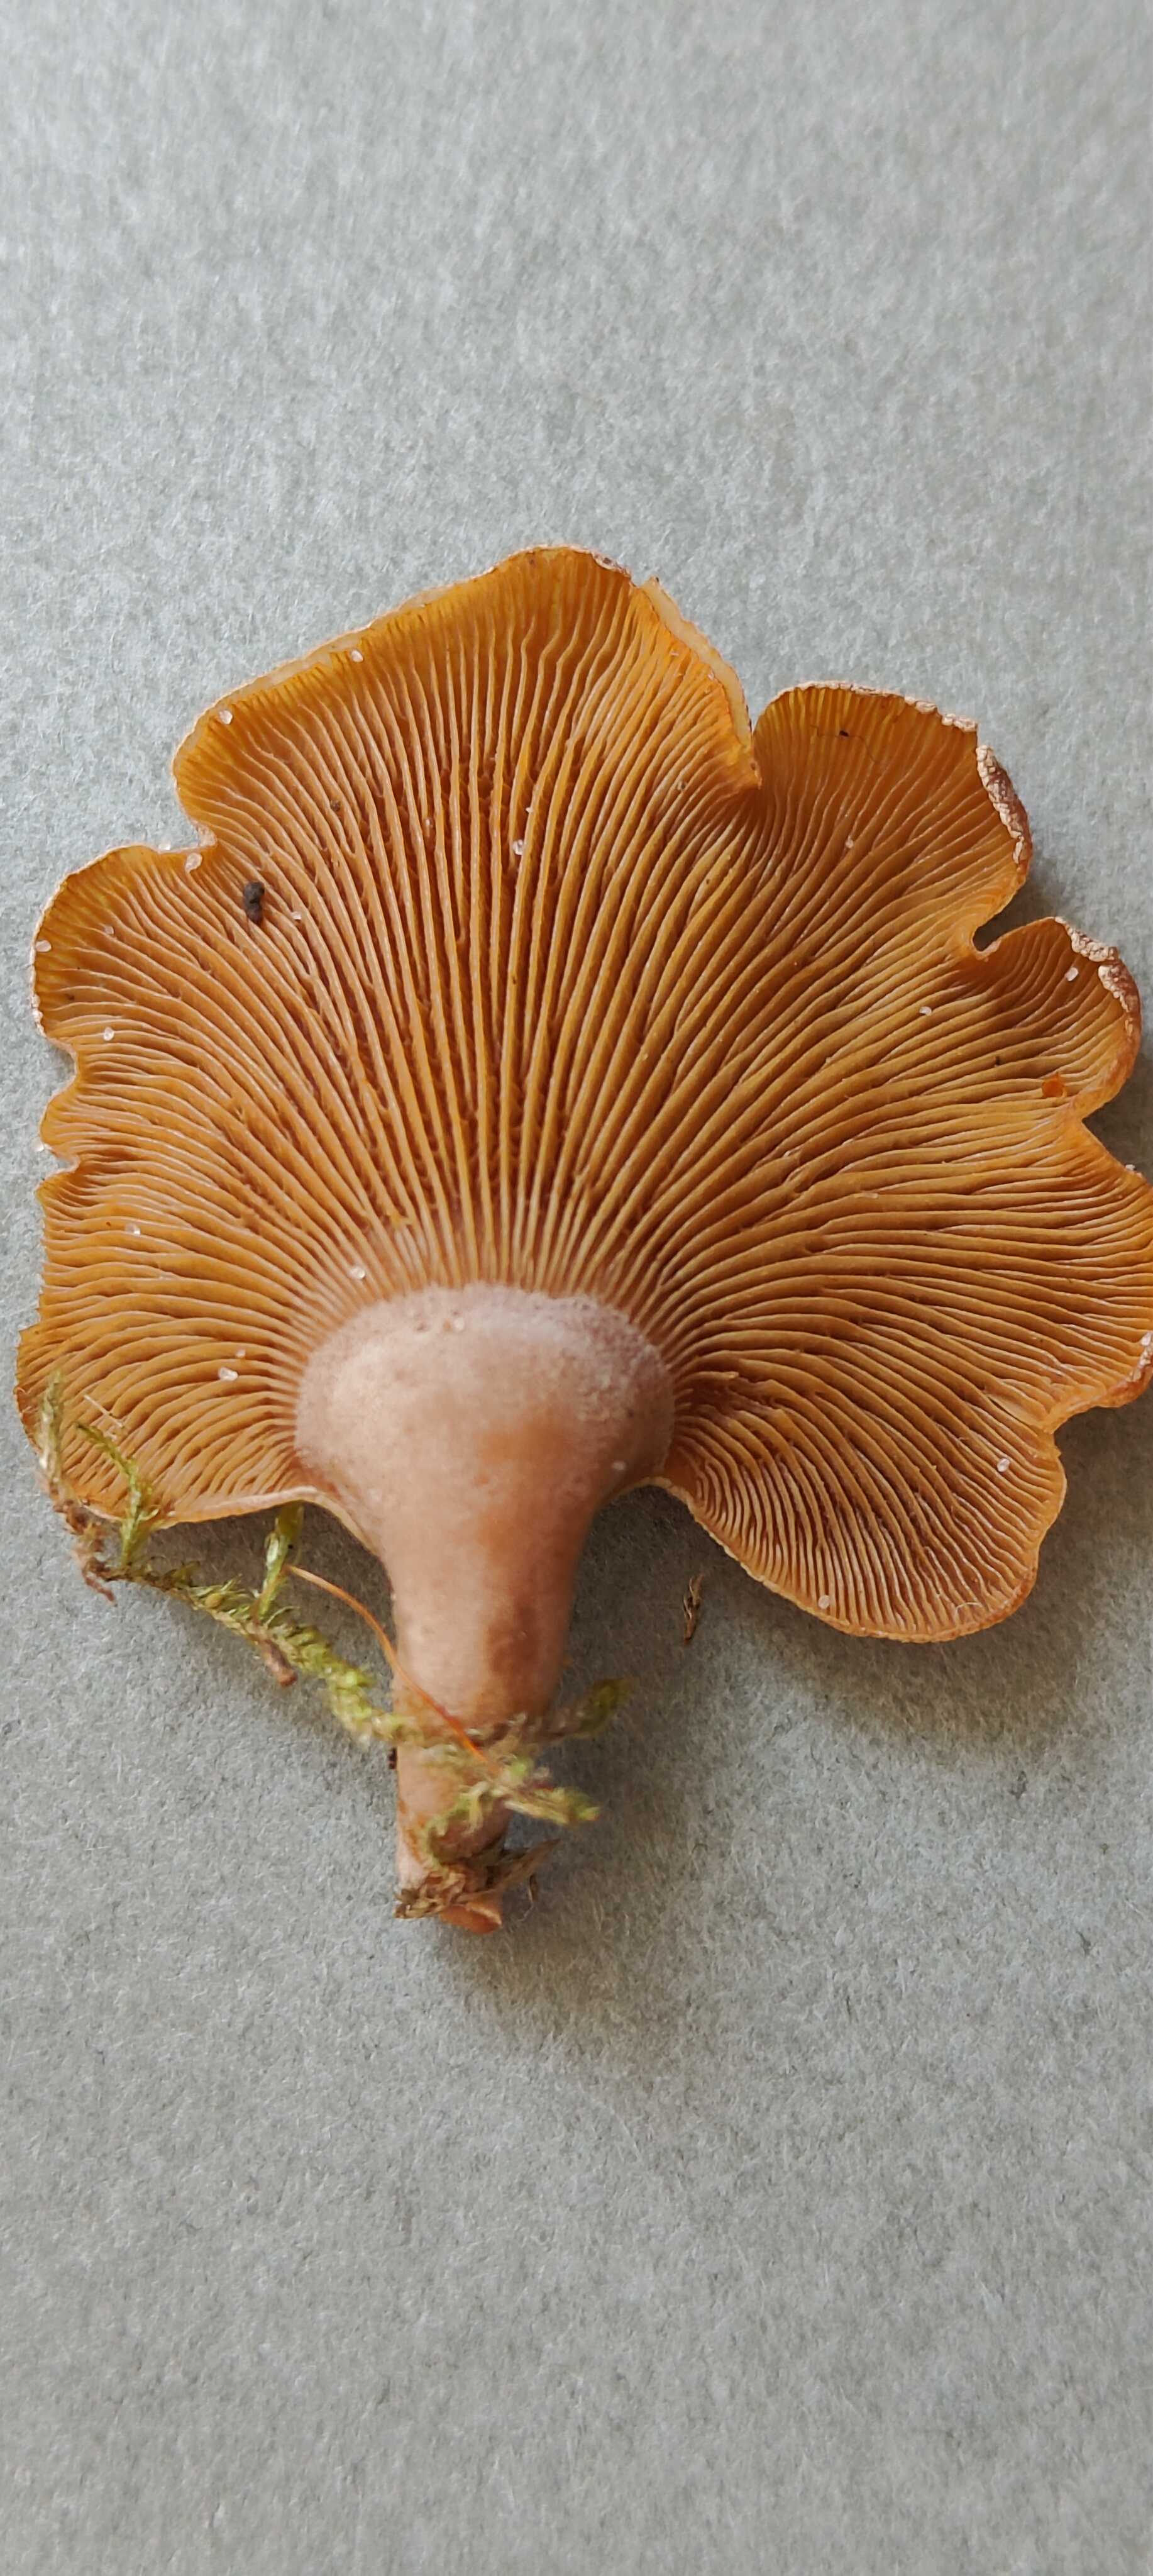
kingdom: Fungi
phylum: Basidiomycota
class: Agaricomycetes
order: Agaricales
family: Mycenaceae
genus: Panellus
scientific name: Panellus stipticus
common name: kliddet epaulethat
